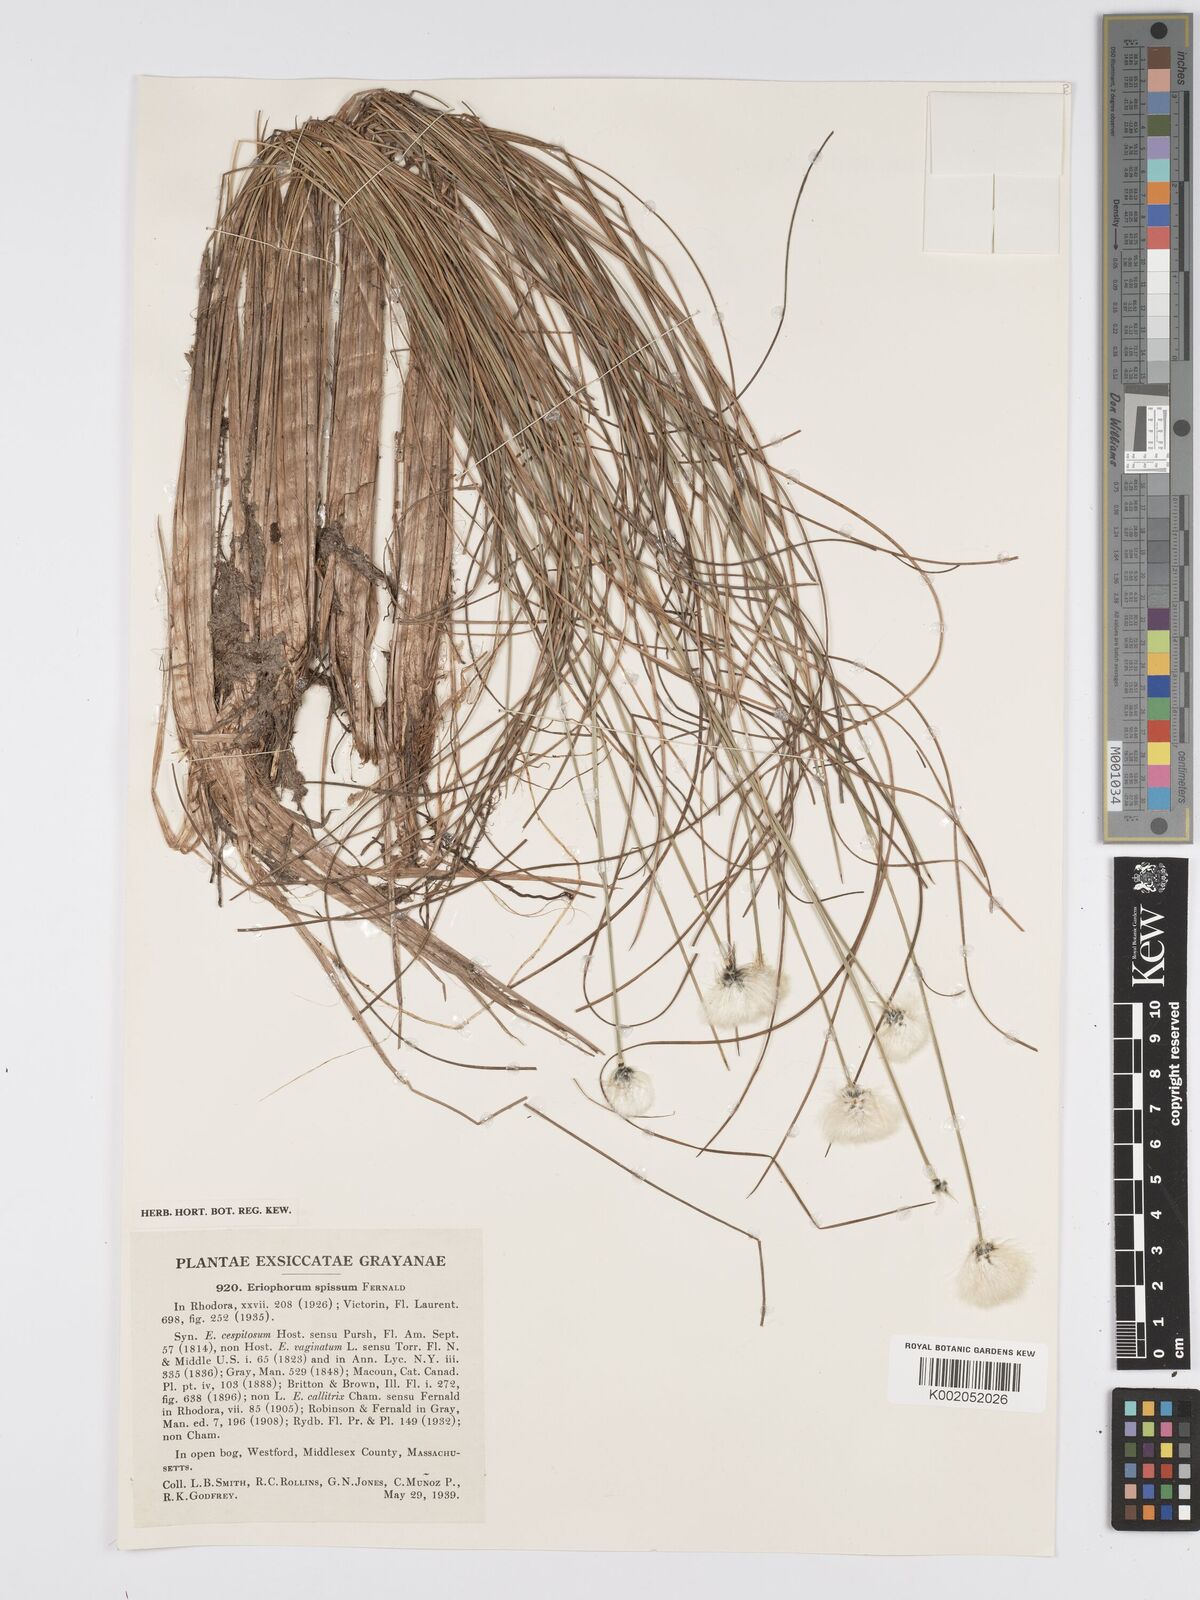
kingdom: Plantae
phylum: Tracheophyta
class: Liliopsida
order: Poales
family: Cyperaceae
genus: Eriophorum
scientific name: Eriophorum vaginatum
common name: Hare's-tail cottongrass
